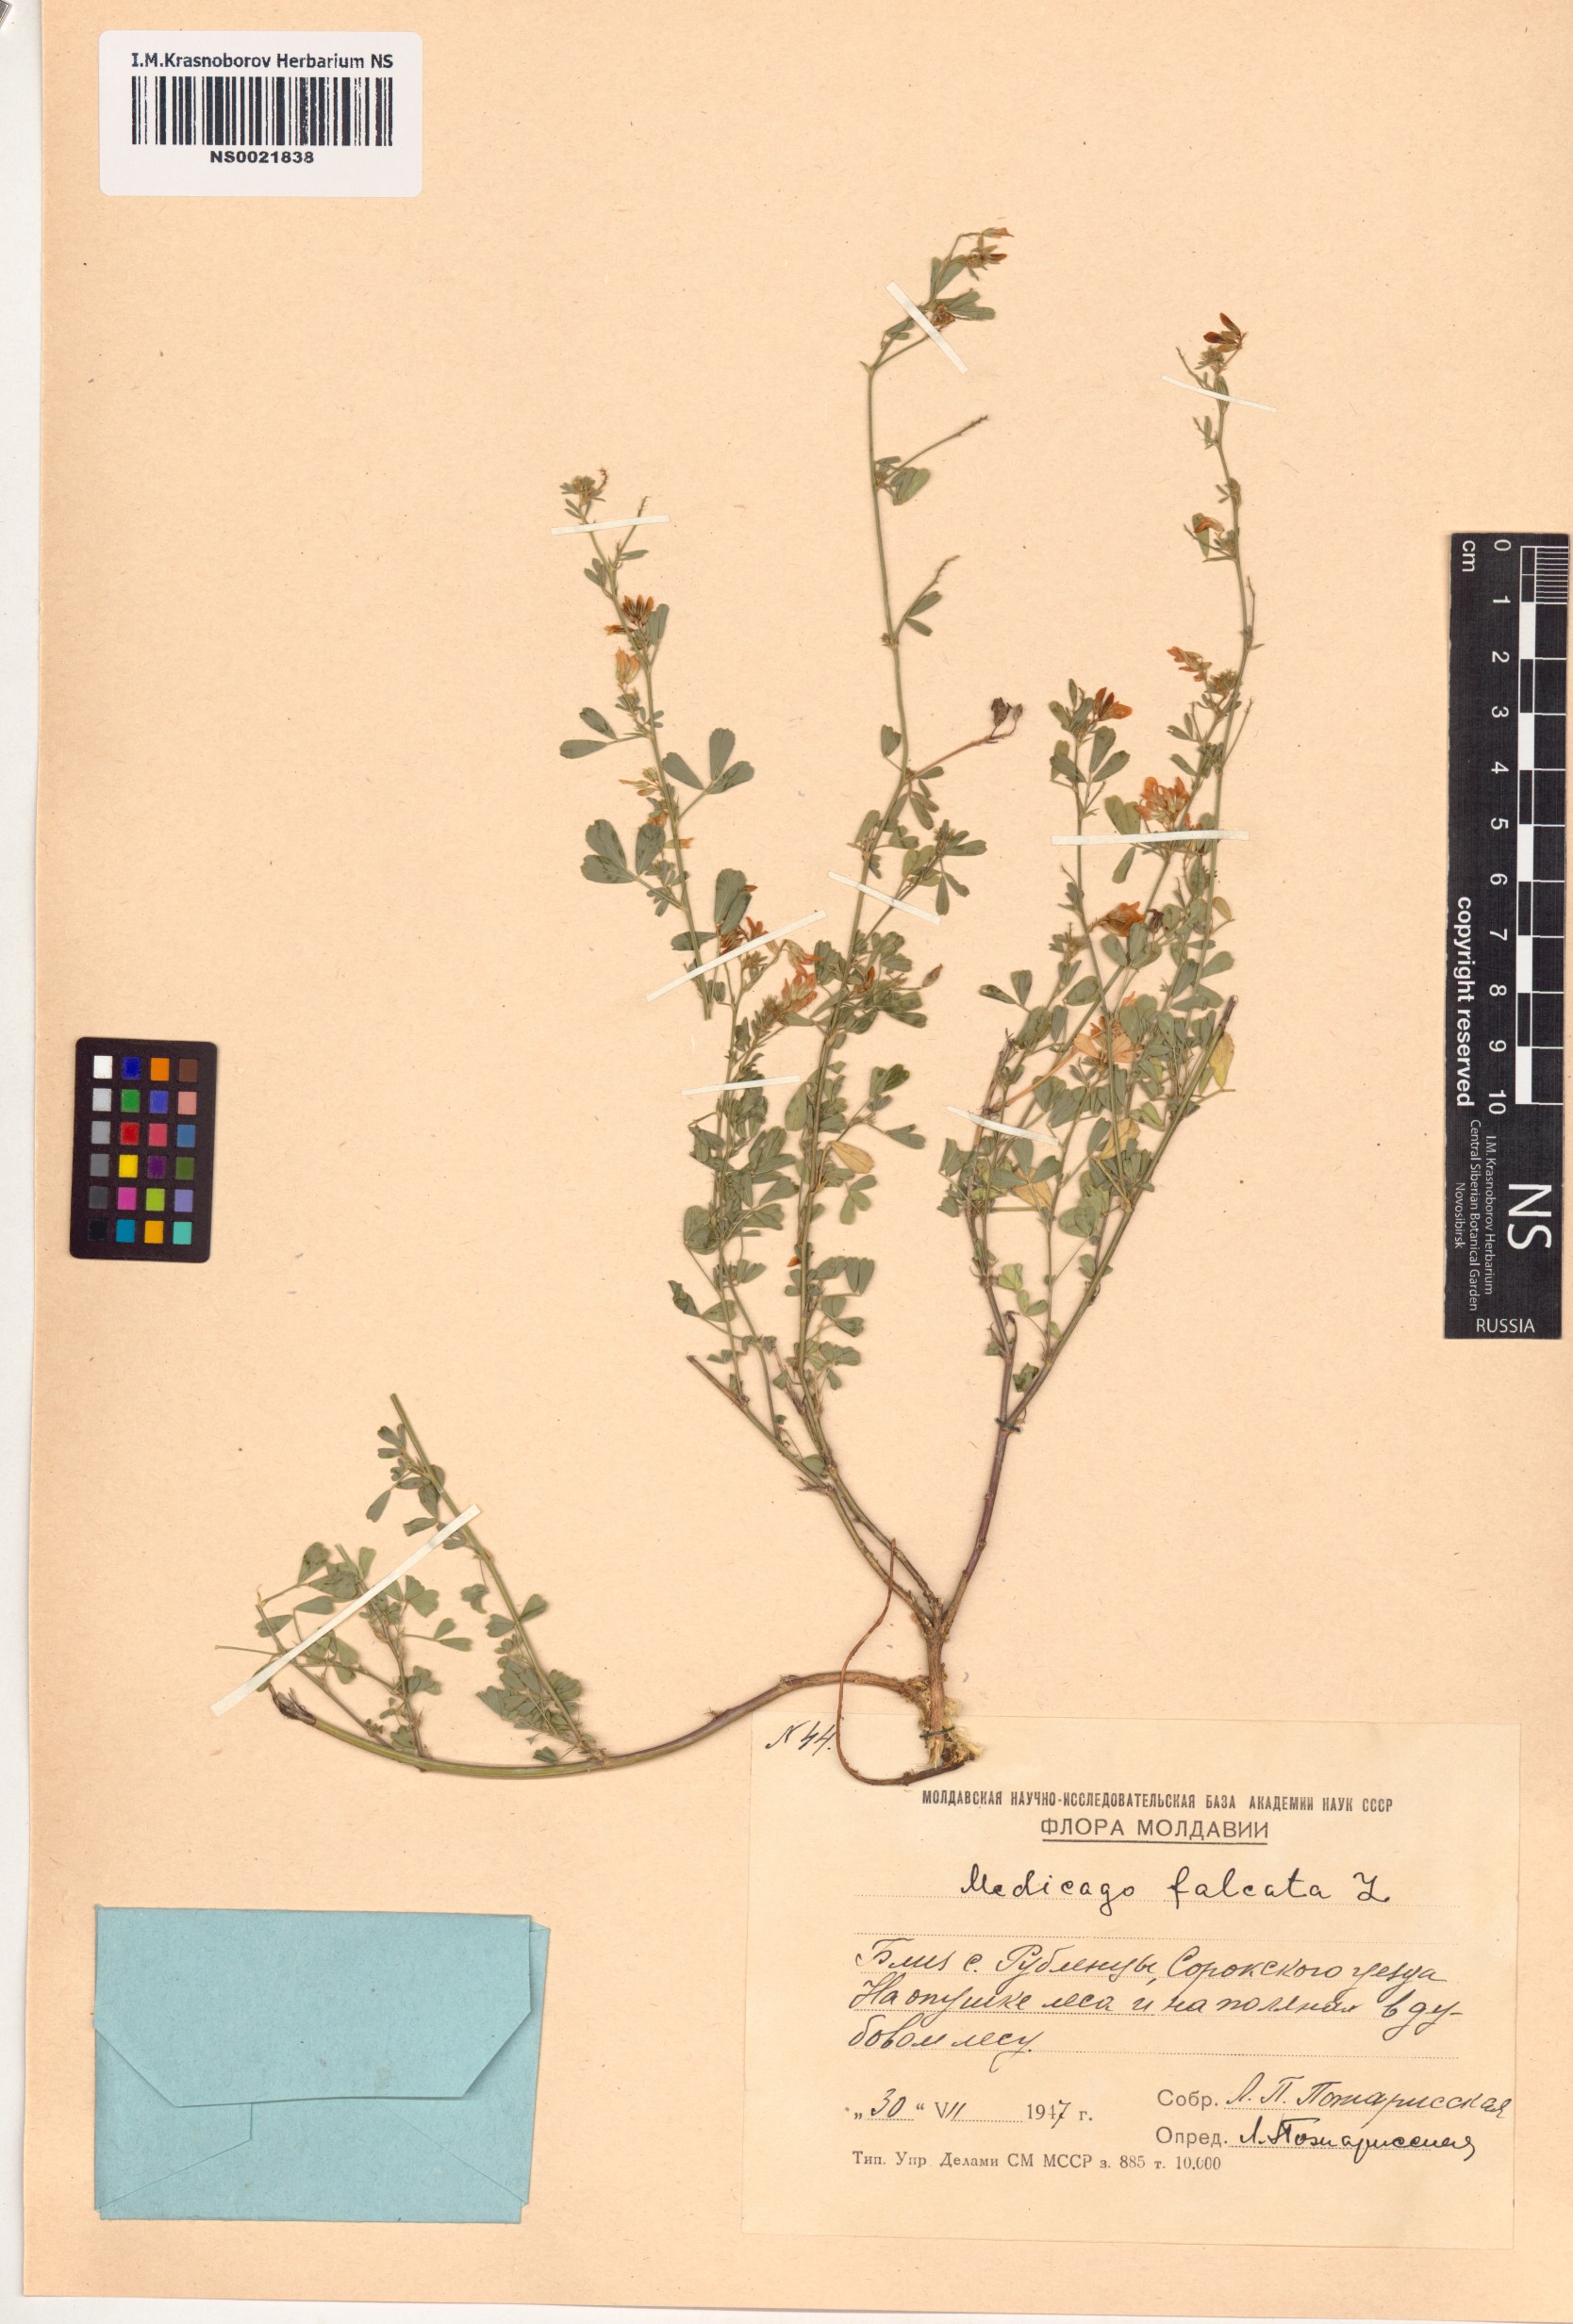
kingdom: Plantae
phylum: Tracheophyta
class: Magnoliopsida
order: Fabales
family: Fabaceae
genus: Medicago
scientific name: Medicago falcata
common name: Sickle medick
